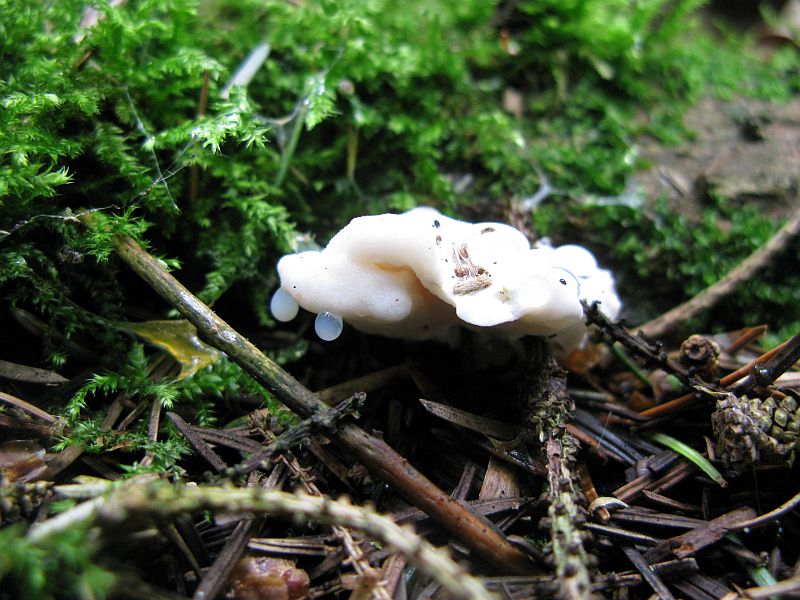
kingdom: Fungi
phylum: Basidiomycota
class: Agaricomycetes
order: Polyporales
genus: Amaropostia
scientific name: Amaropostia stiptica
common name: bitter kødporesvamp
